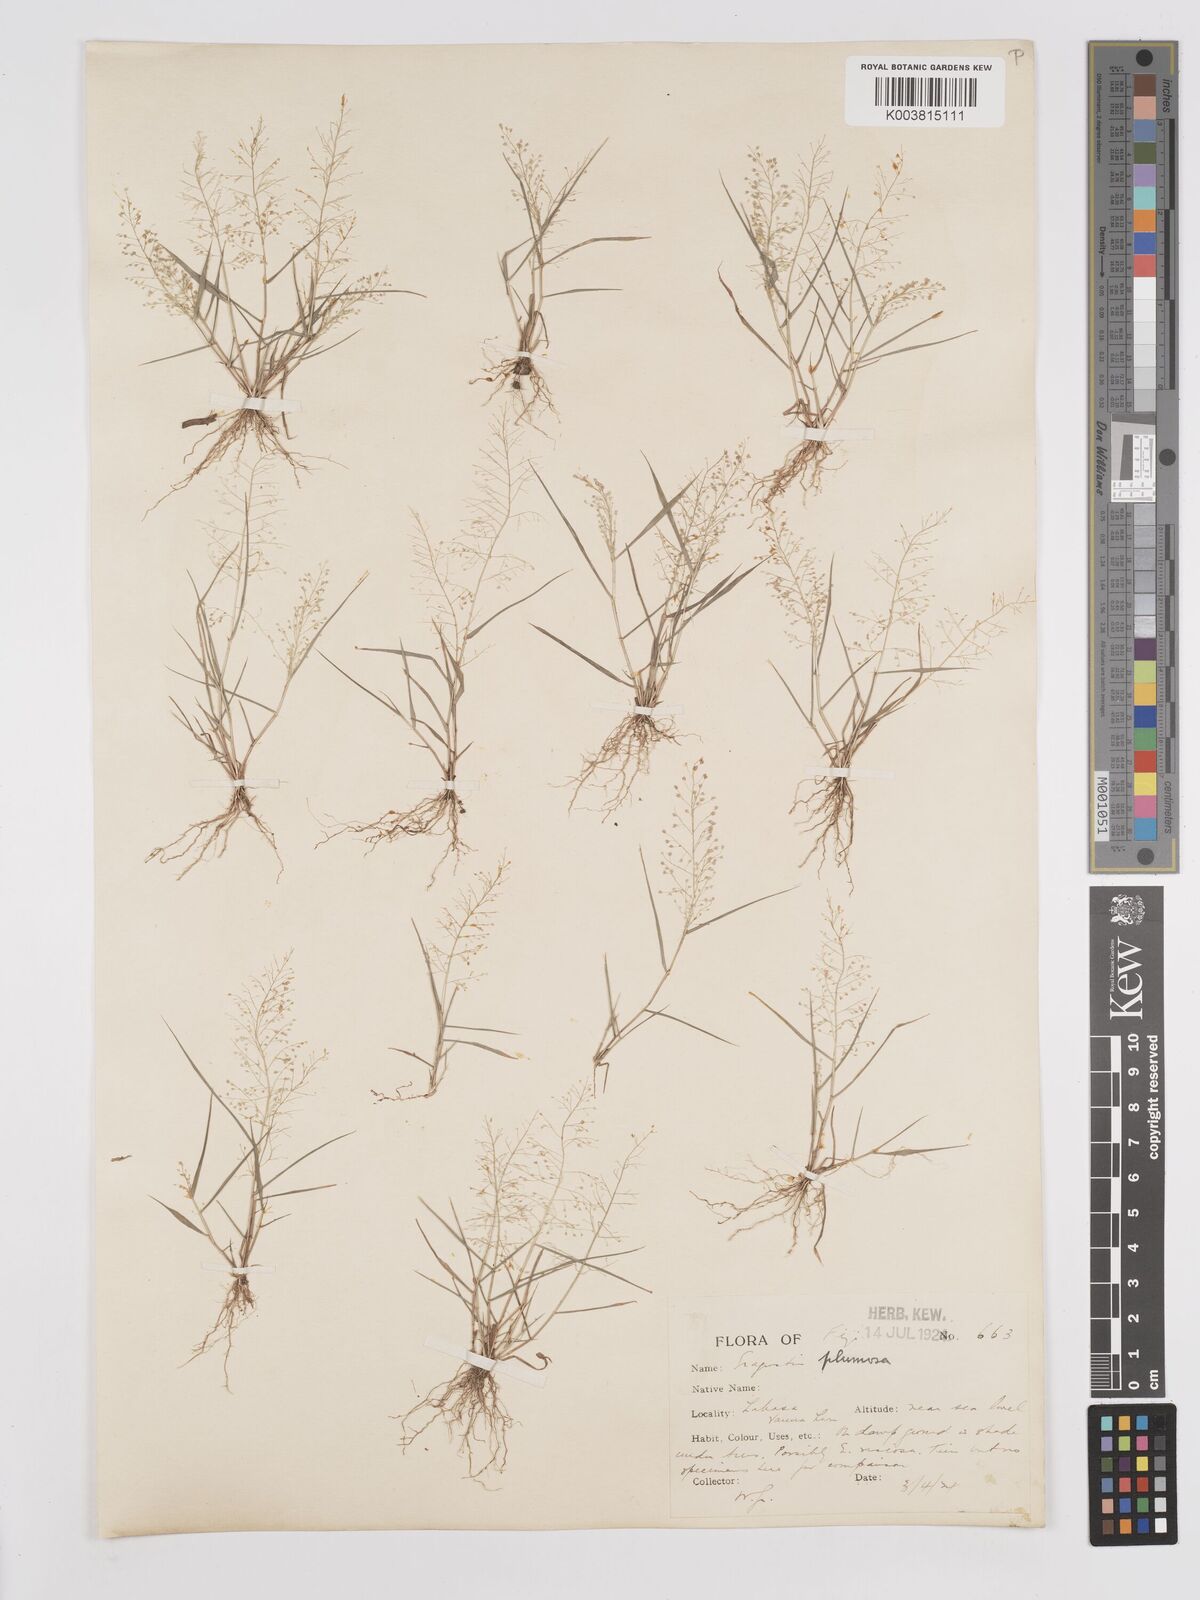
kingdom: Plantae
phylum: Tracheophyta
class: Liliopsida
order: Poales
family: Poaceae
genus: Eragrostis
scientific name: Eragrostis tenella
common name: Japanese lovegrass
